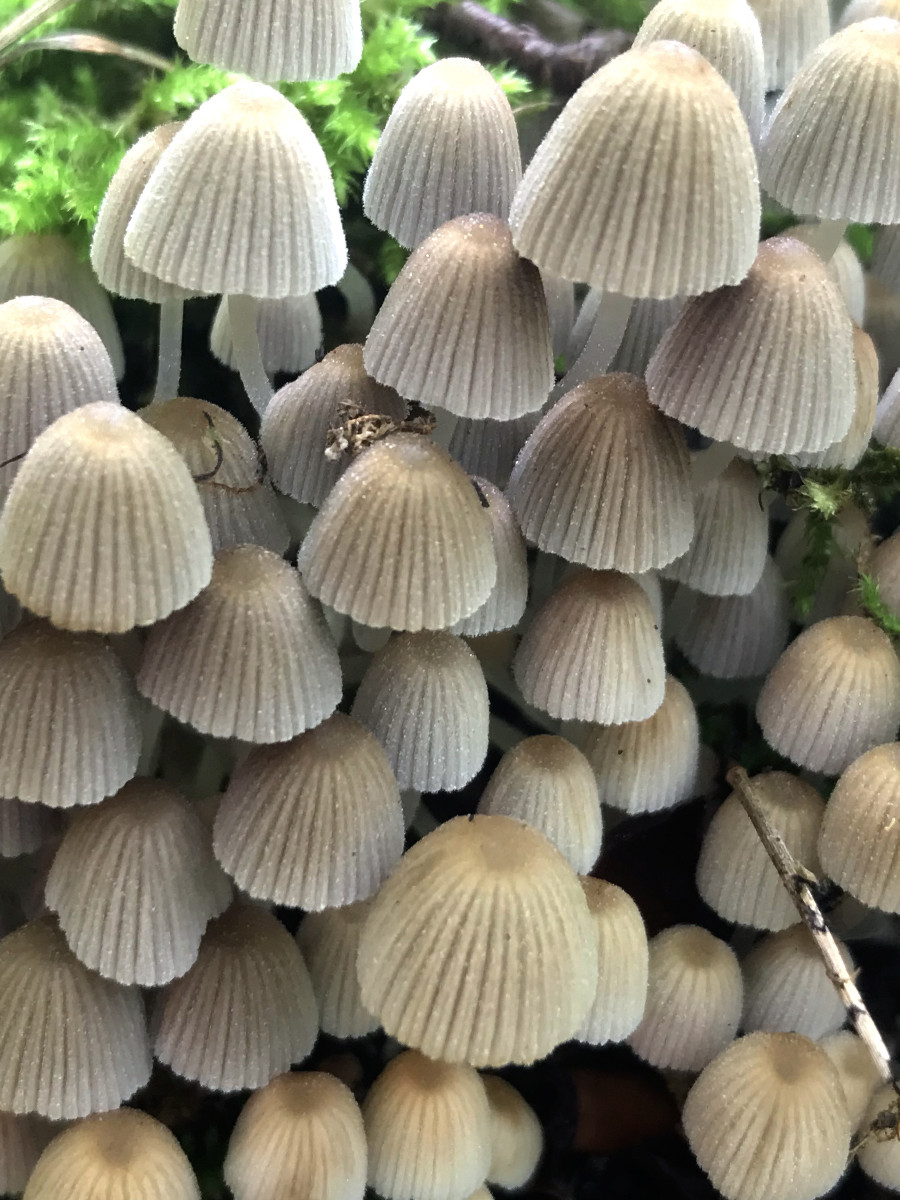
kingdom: Fungi
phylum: Basidiomycota
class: Agaricomycetes
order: Agaricales
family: Psathyrellaceae
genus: Coprinellus
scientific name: Coprinellus disseminatus
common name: bredsået blækhat
